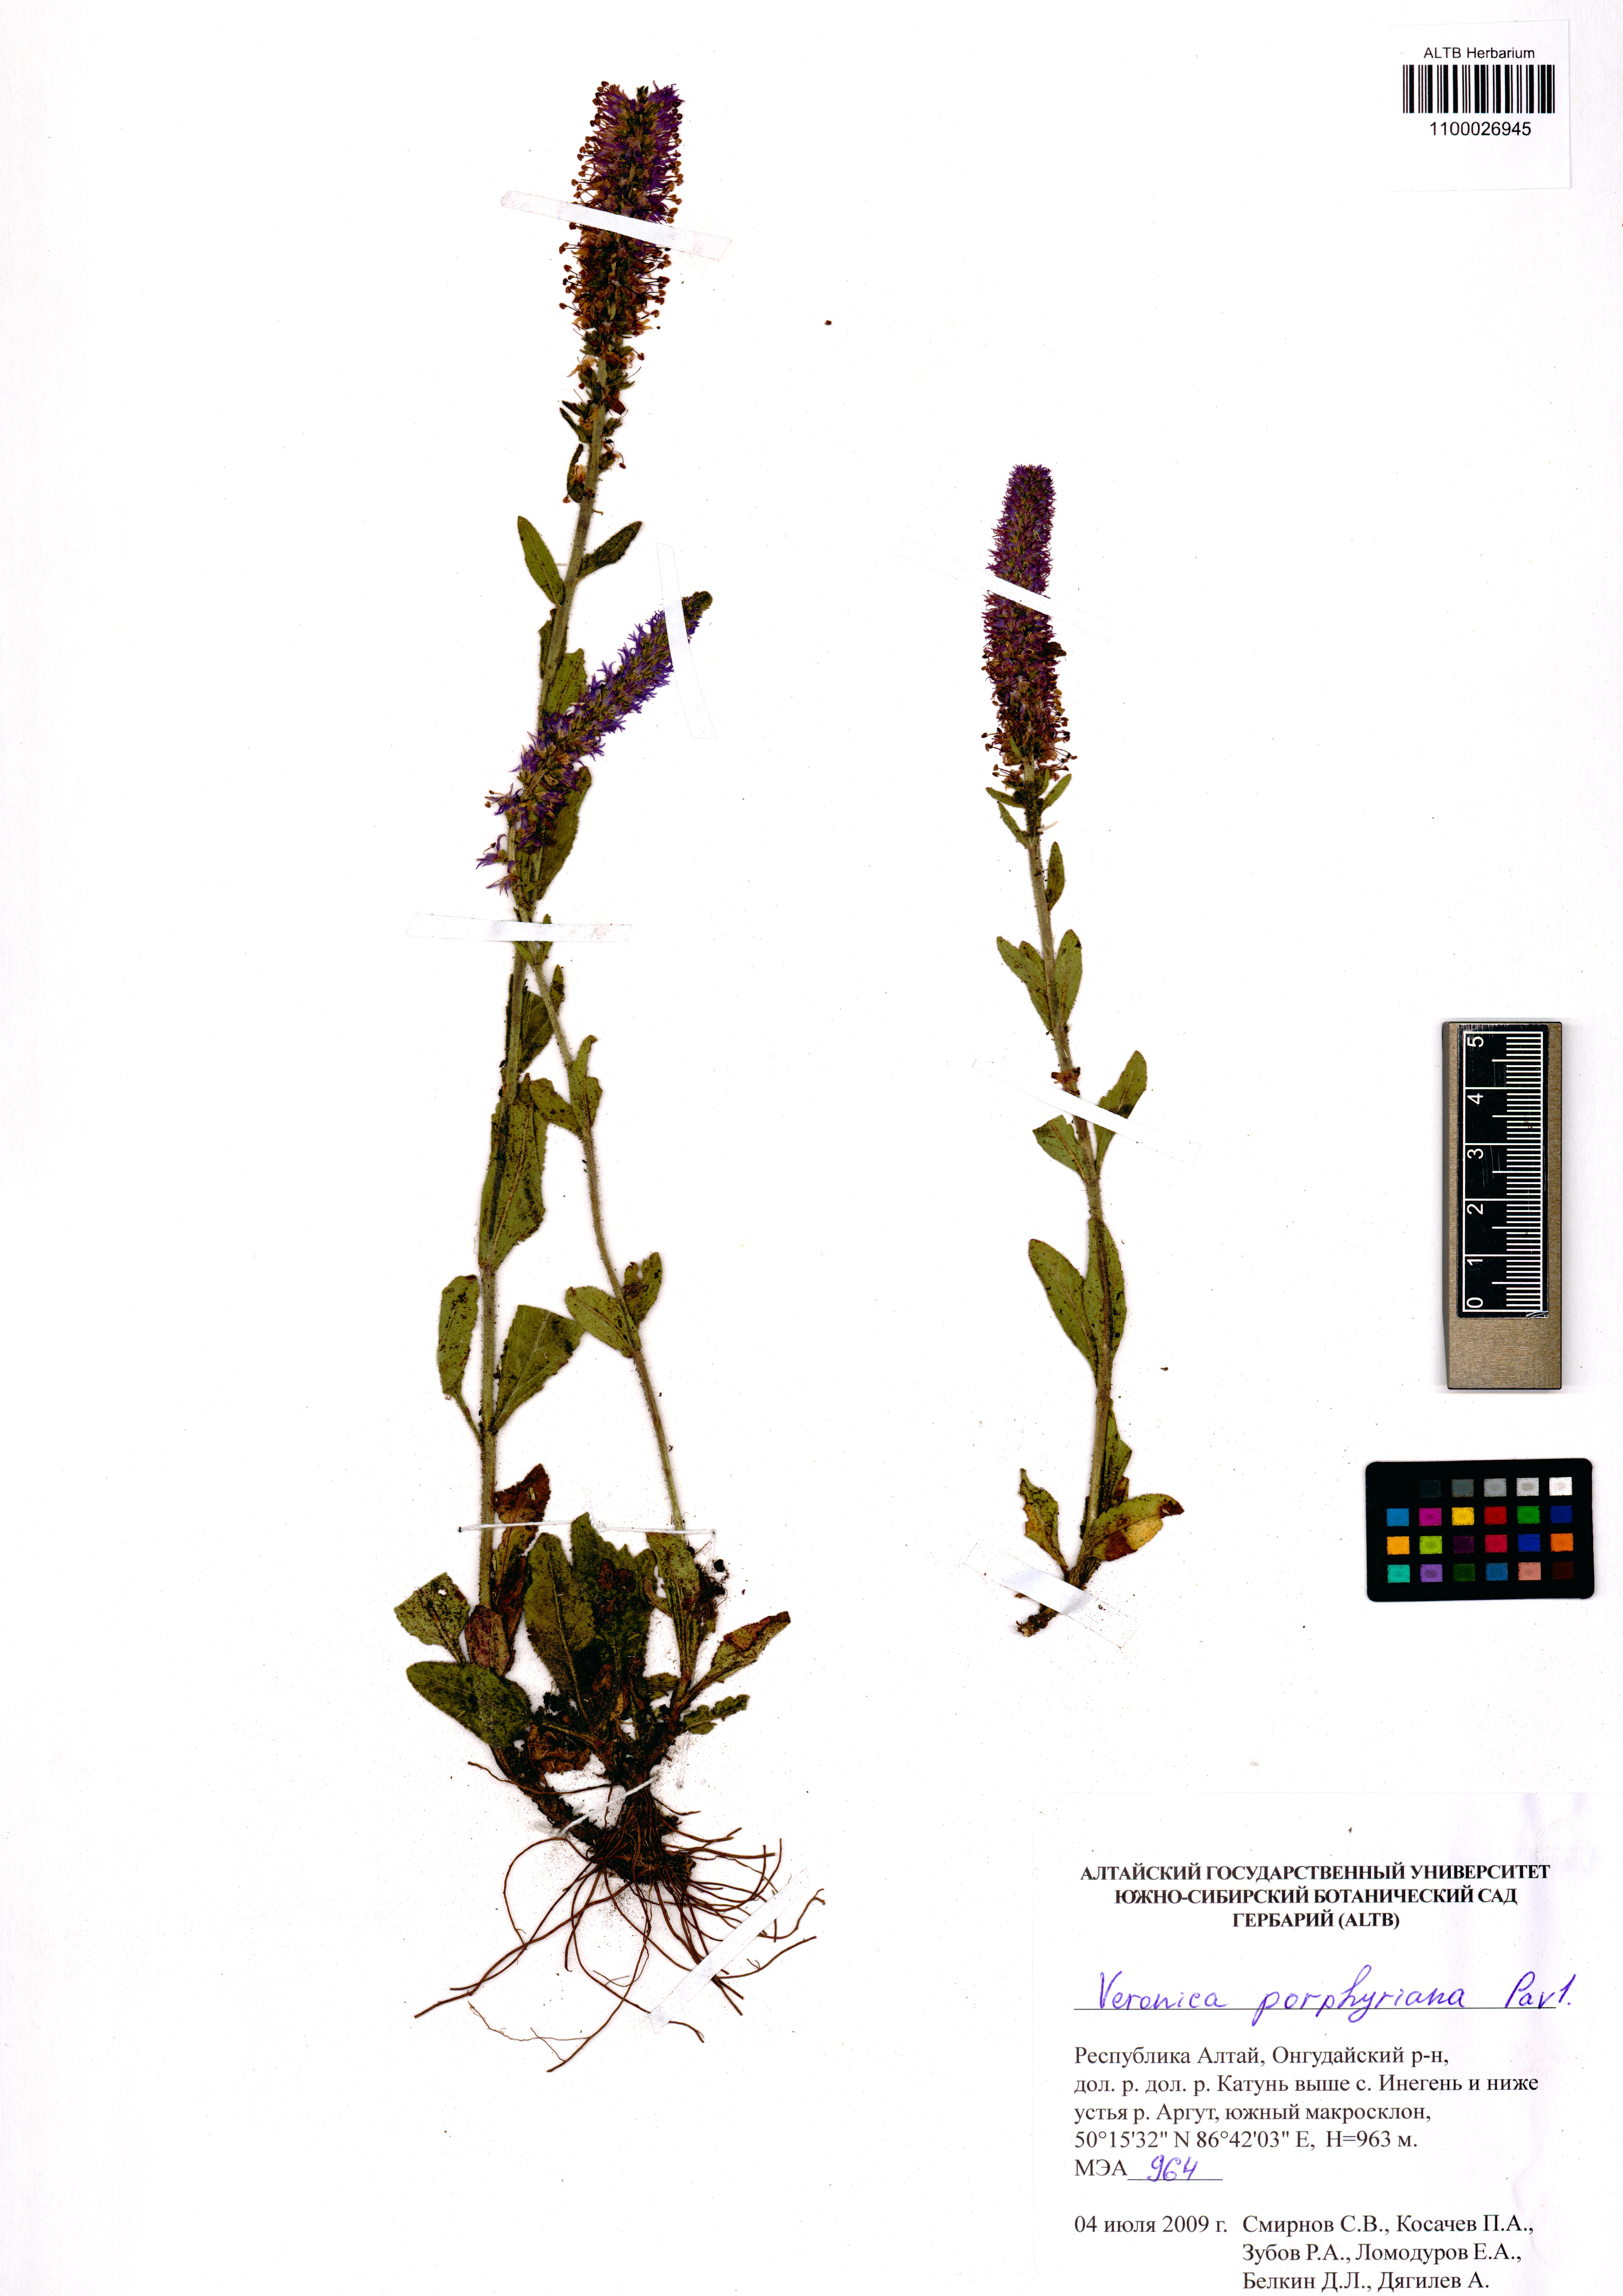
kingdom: Plantae
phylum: Tracheophyta
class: Magnoliopsida
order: Lamiales
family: Plantaginaceae
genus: Veronica
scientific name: Veronica porphyriana
